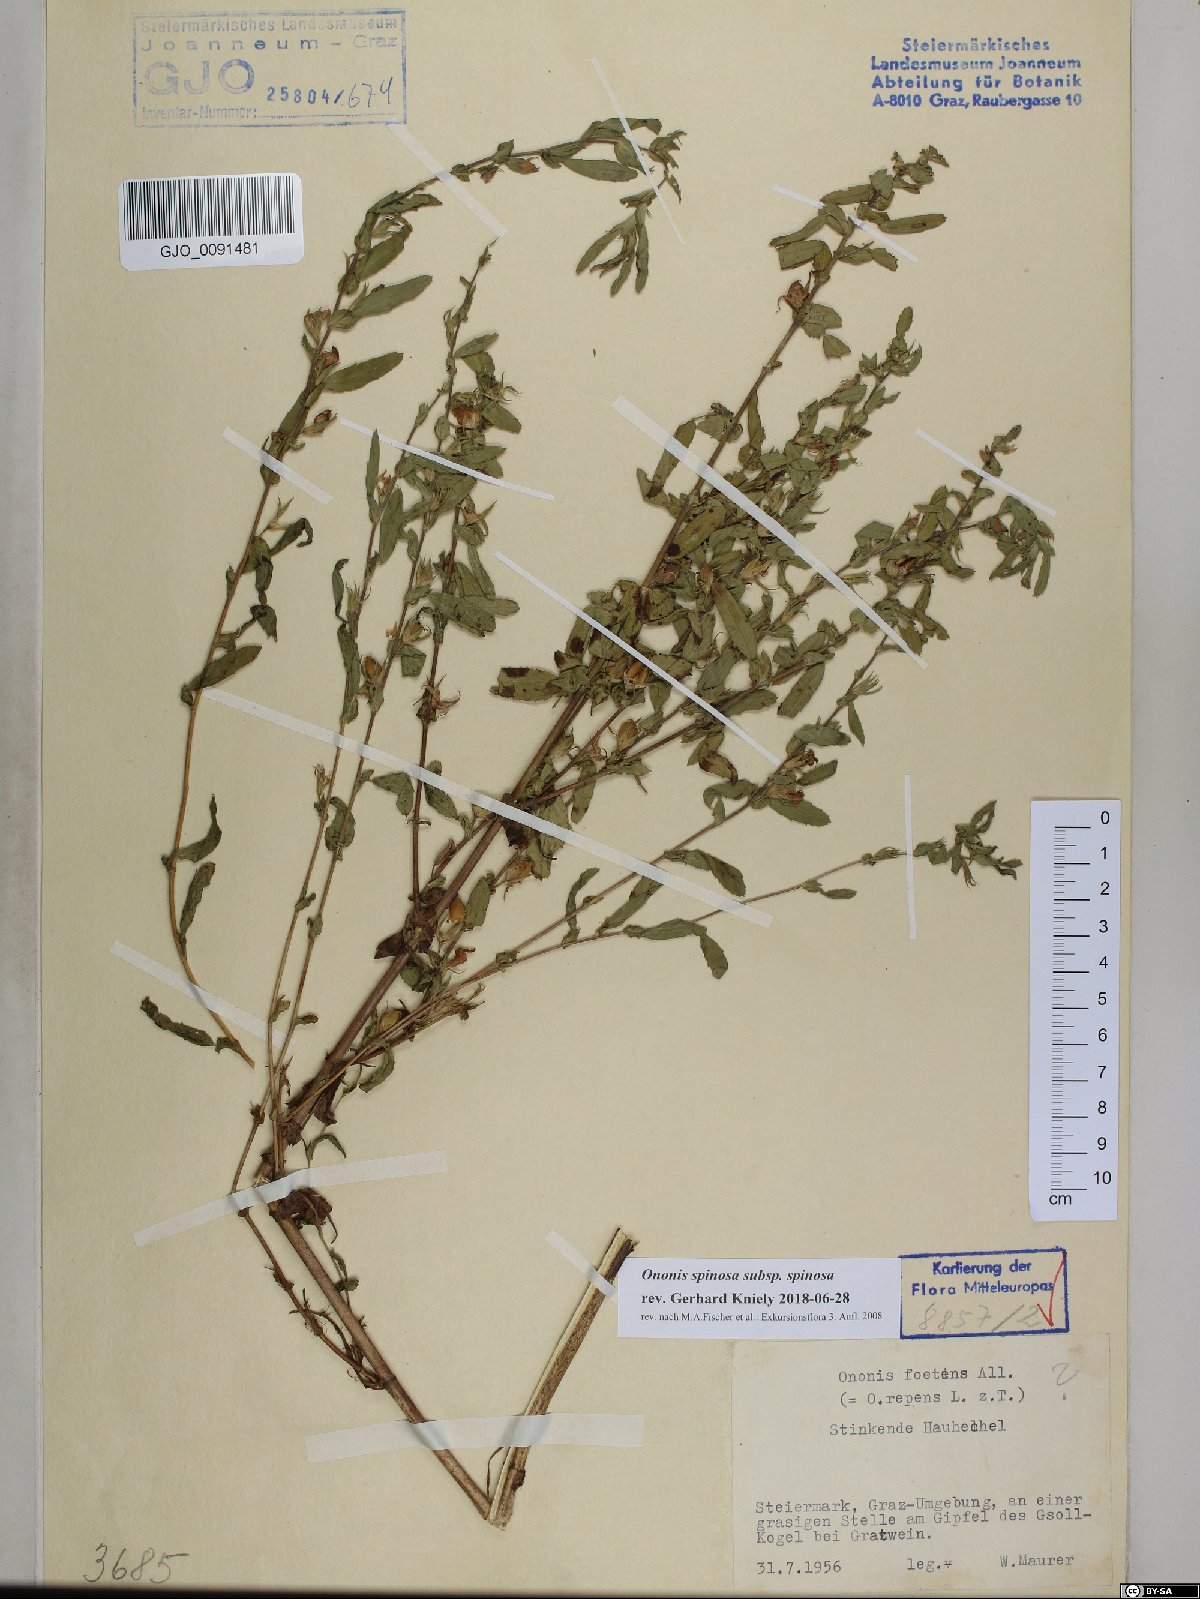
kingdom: Plantae
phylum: Tracheophyta
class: Magnoliopsida
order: Fabales
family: Fabaceae
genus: Ononis
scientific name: Ononis spinosa
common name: Spiny restharrow
